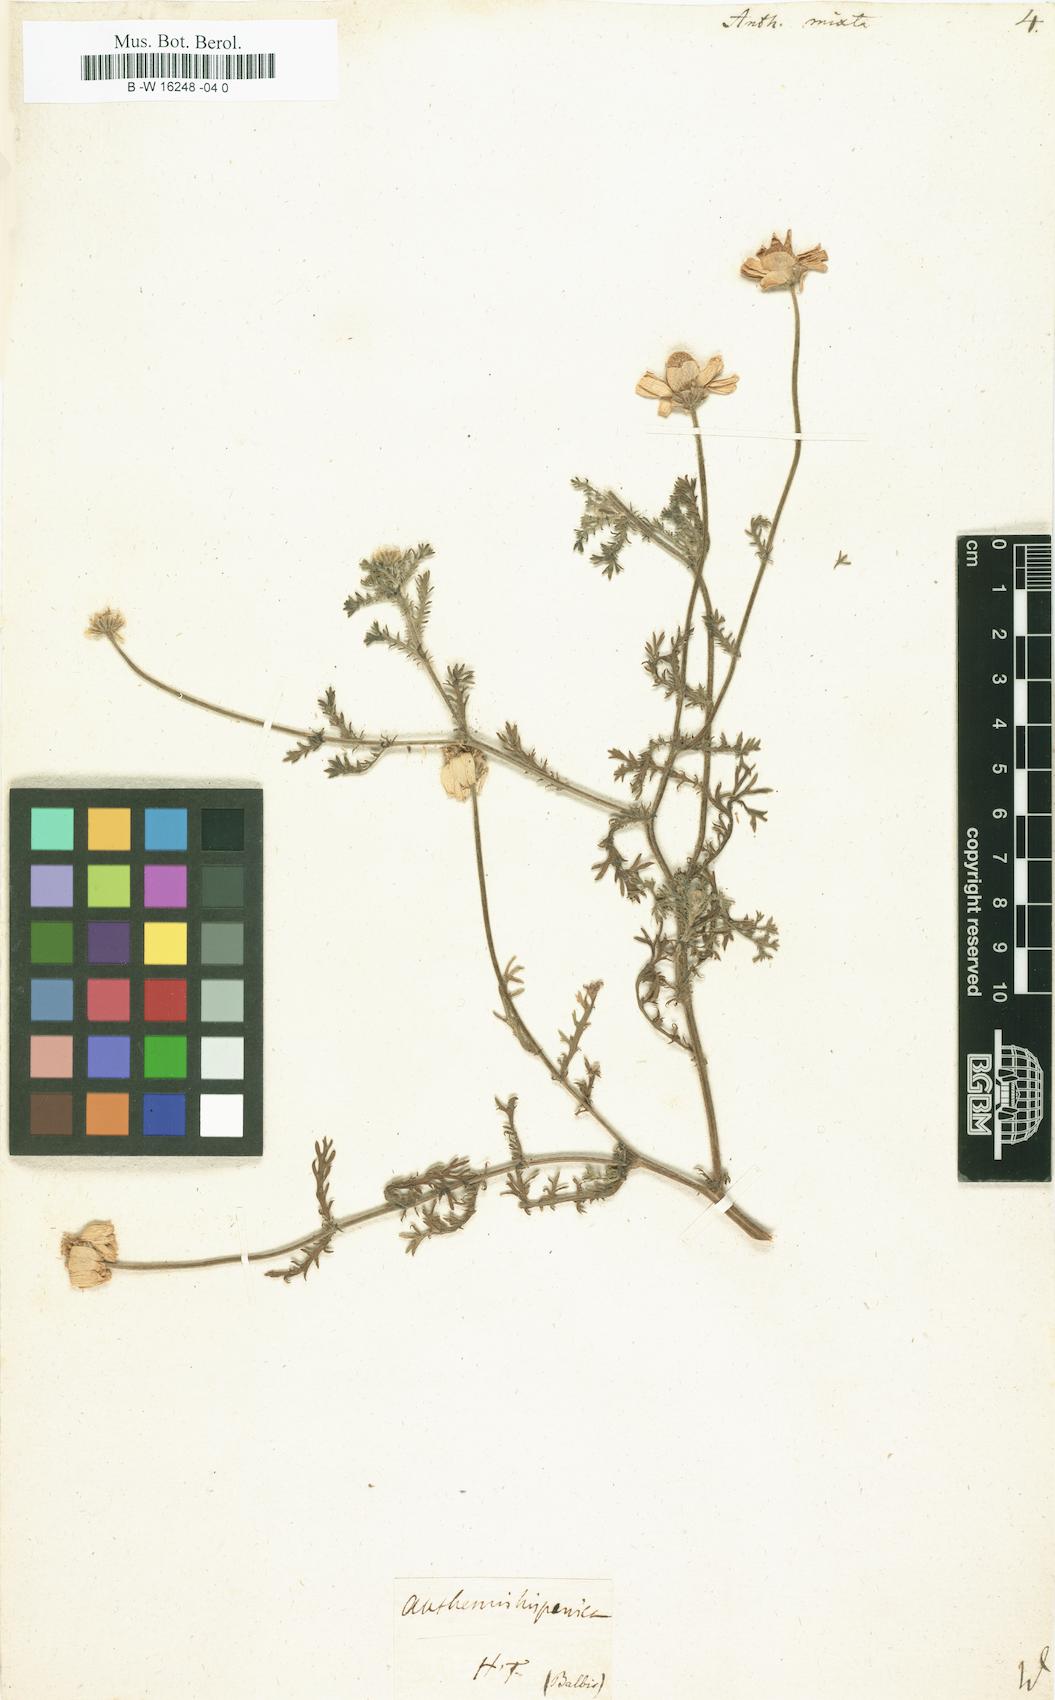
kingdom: Plantae
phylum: Tracheophyta
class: Magnoliopsida
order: Asterales
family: Asteraceae
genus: Cladanthus
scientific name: Cladanthus mixtus
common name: Weedy dogfennel
